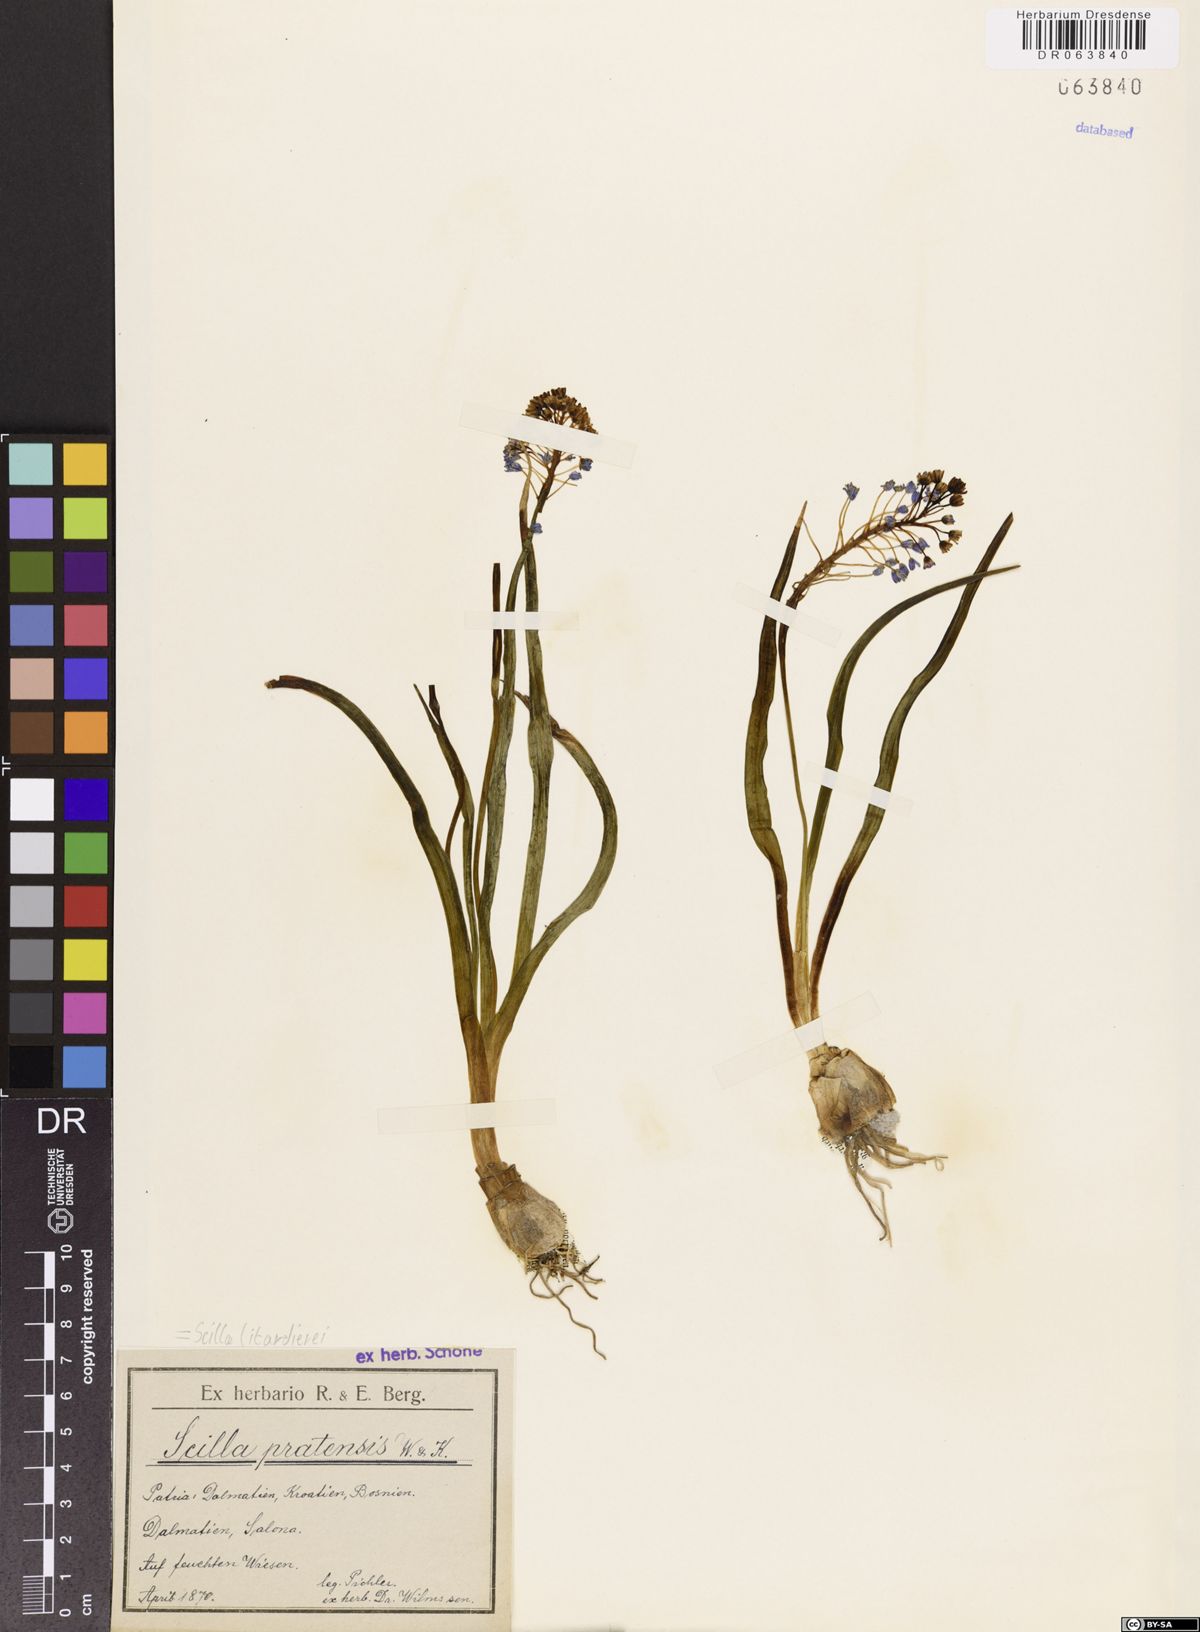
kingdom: Plantae
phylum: Tracheophyta
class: Liliopsida
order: Asparagales
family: Asparagaceae
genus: Scilla
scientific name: Scilla litardierei
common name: Amethyst meadow squill
